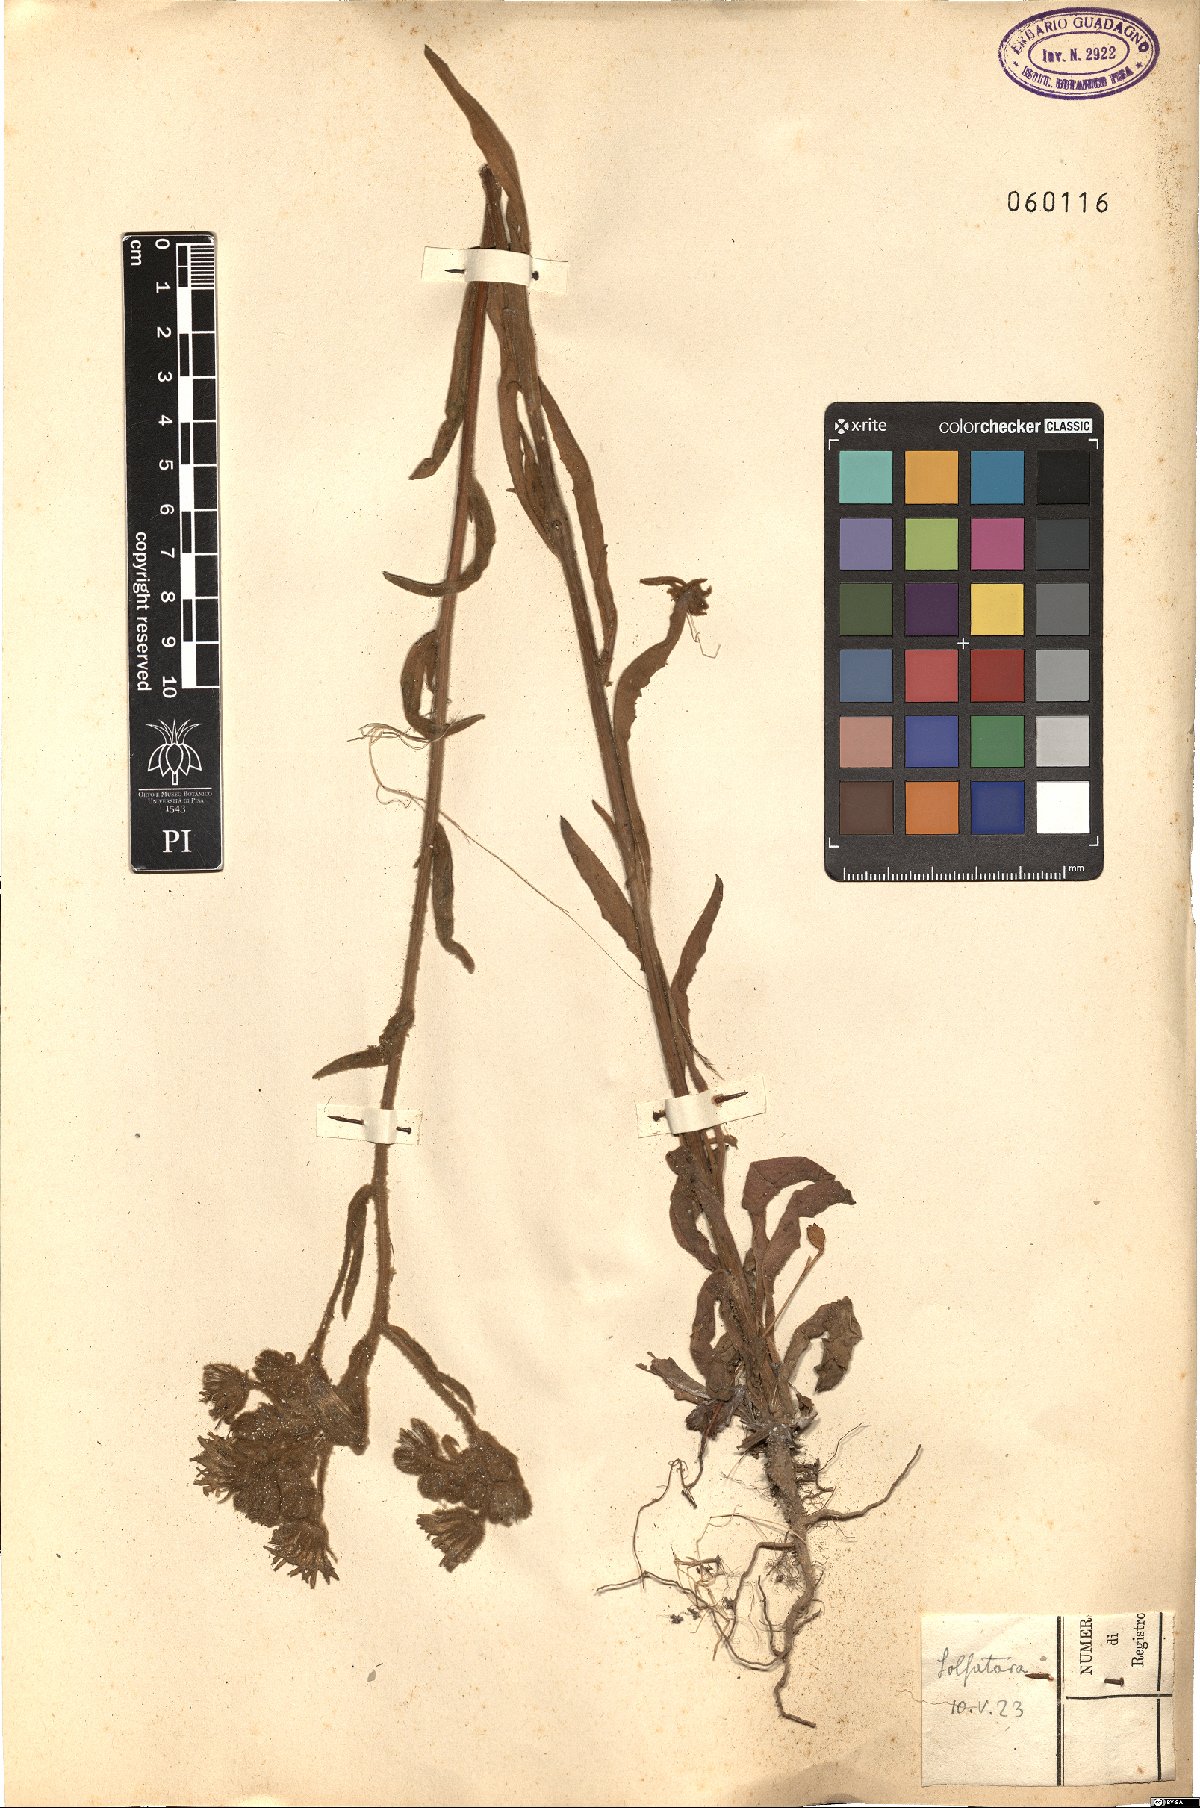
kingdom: Plantae
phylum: Tracheophyta
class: Magnoliopsida
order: Asterales
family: Asteraceae
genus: Andryala
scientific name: Andryala integrifolia
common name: Common andryala
